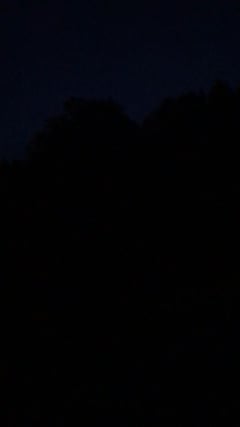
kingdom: Animalia
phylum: Chordata
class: Aves
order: Strigiformes
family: Strigidae
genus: Athene
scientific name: Athene noctua
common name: Little owl
